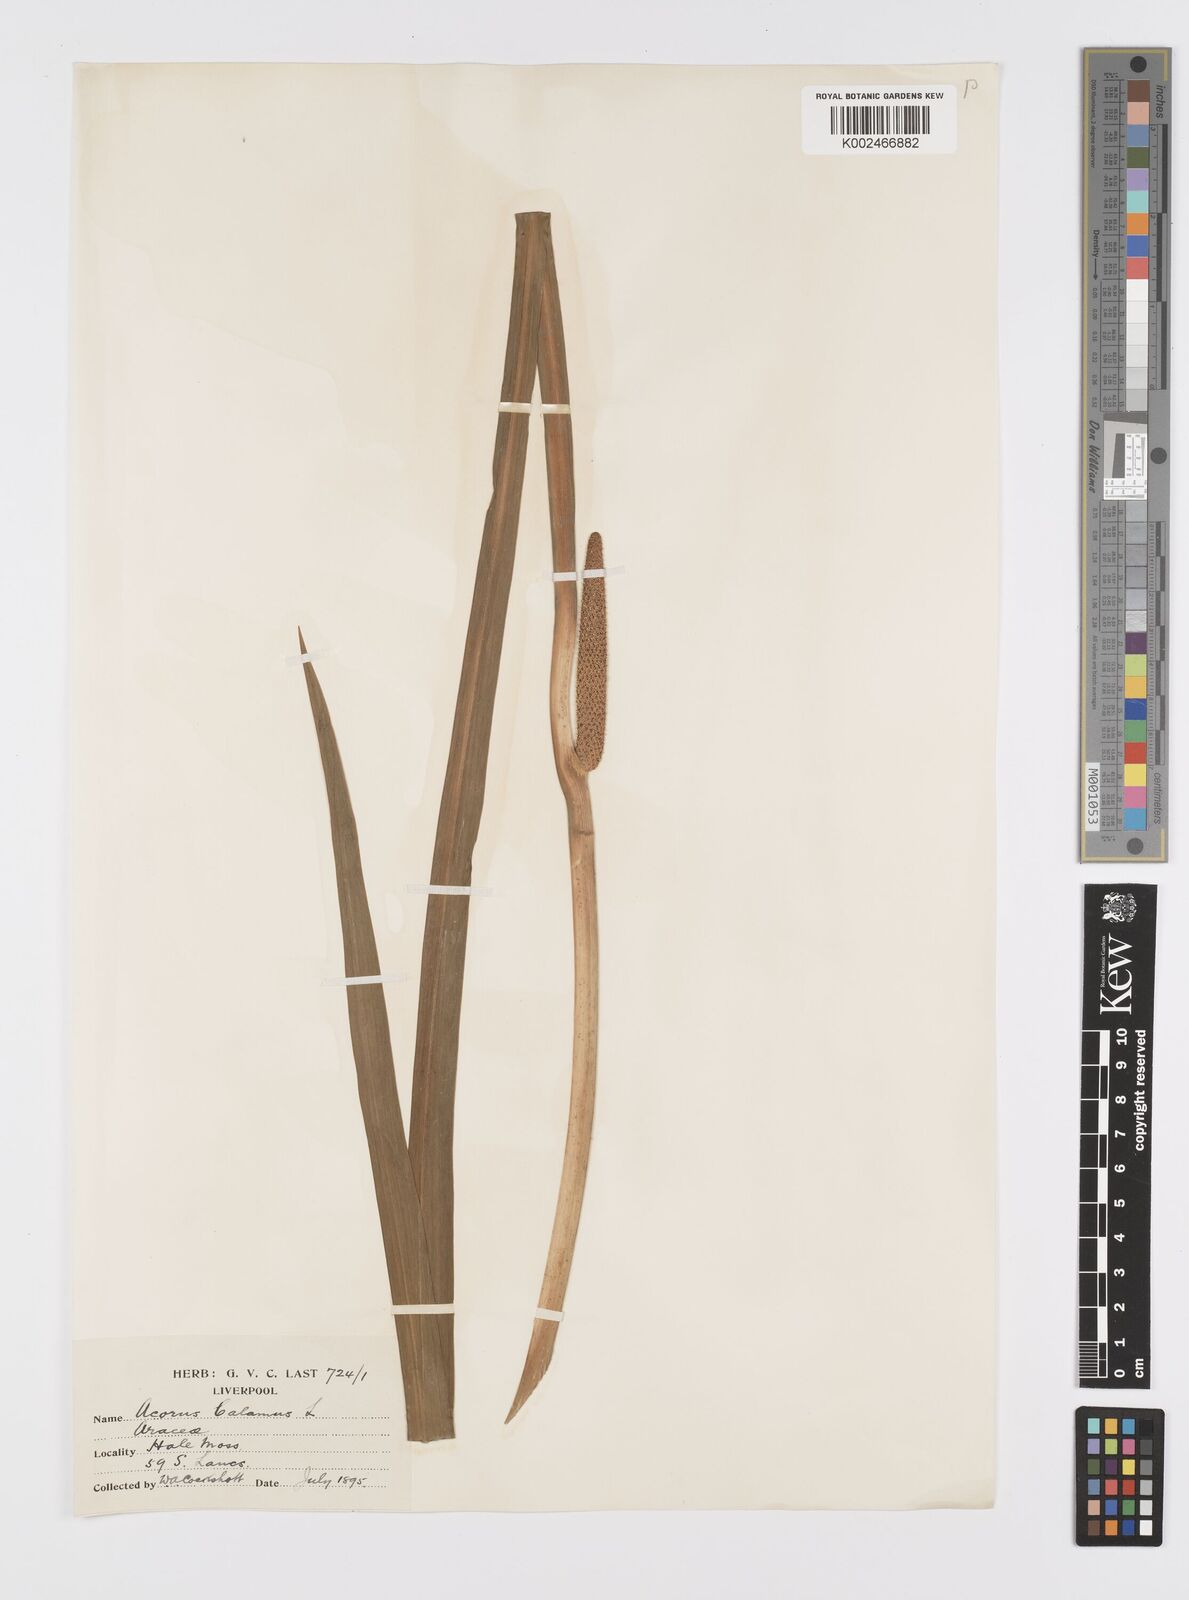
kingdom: Plantae
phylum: Tracheophyta
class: Liliopsida
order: Acorales
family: Acoraceae
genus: Acorus
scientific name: Acorus calamus
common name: Sweet-flag
